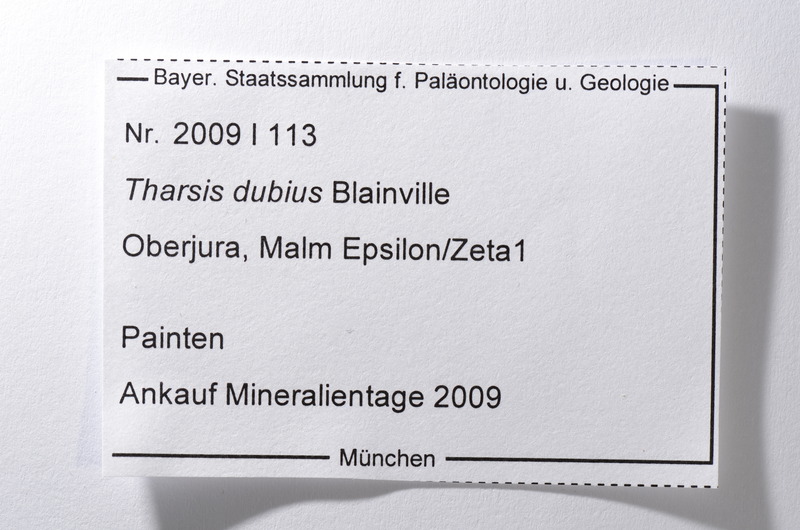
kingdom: Animalia
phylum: Chordata
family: Ascalaboidae
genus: Tharsis
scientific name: Tharsis dubius
